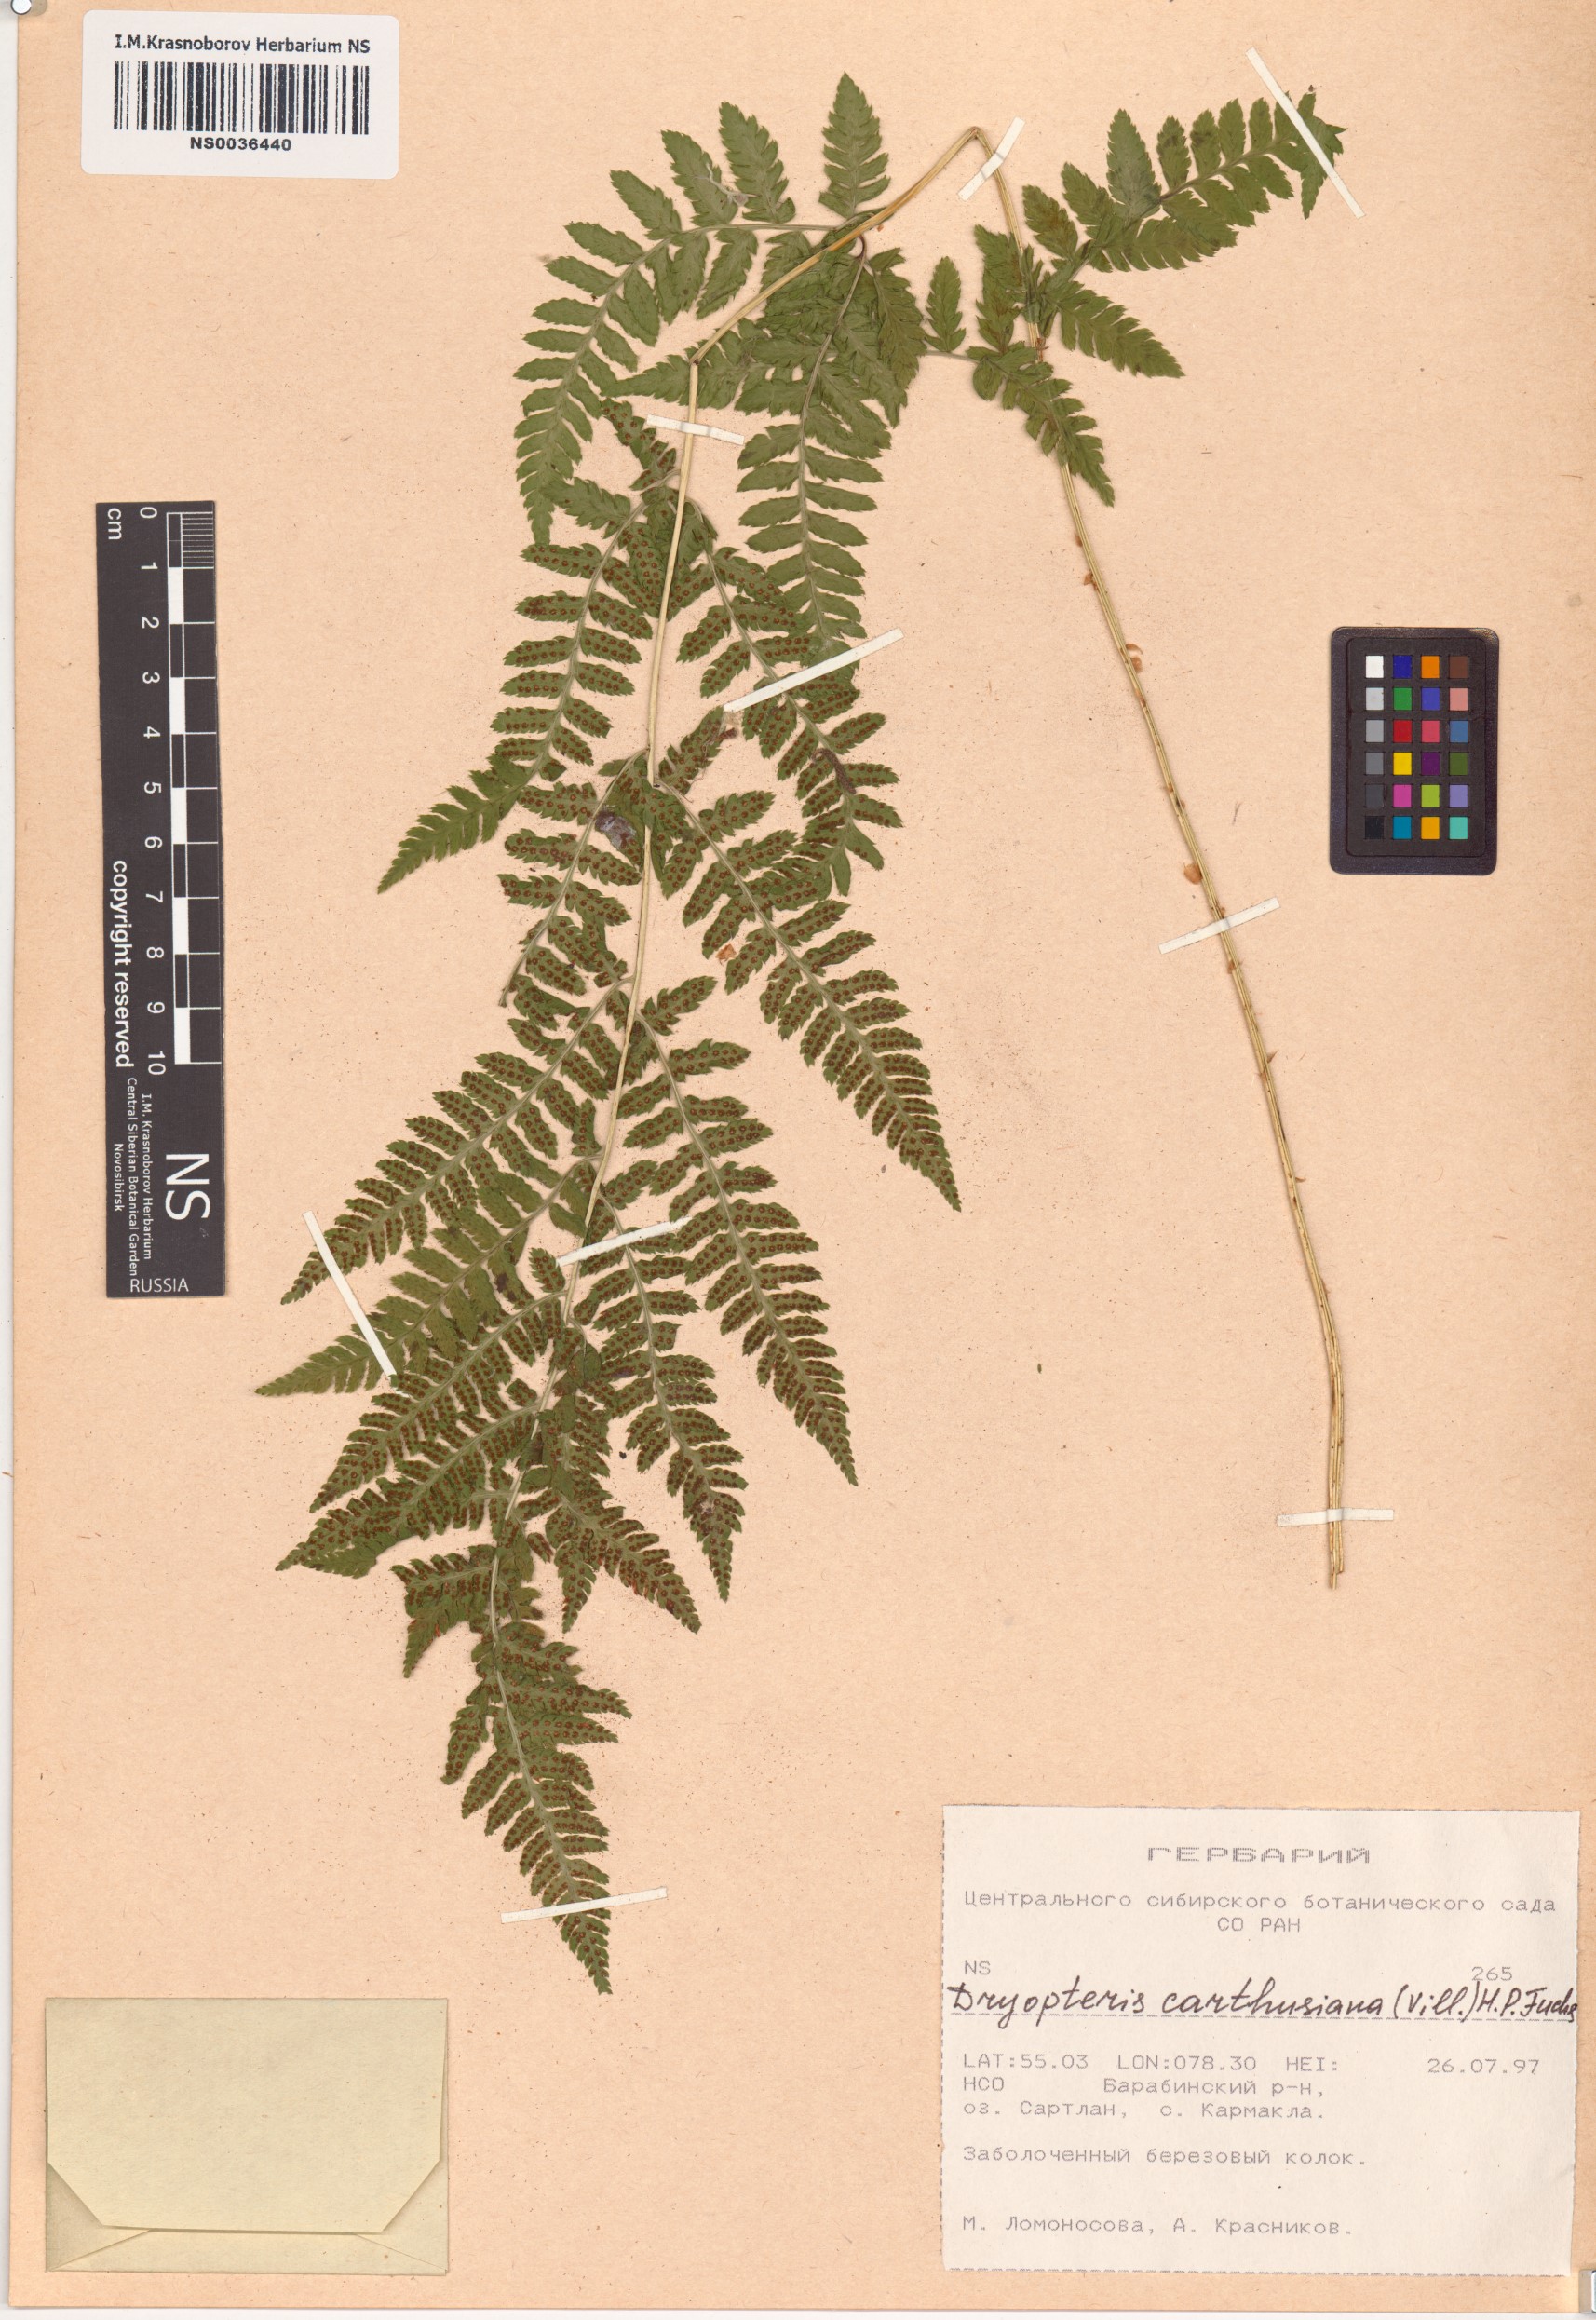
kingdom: Plantae
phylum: Tracheophyta
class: Polypodiopsida
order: Polypodiales
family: Dryopteridaceae
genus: Dryopteris
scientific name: Dryopteris carthusiana
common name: Narrow buckler-fern
